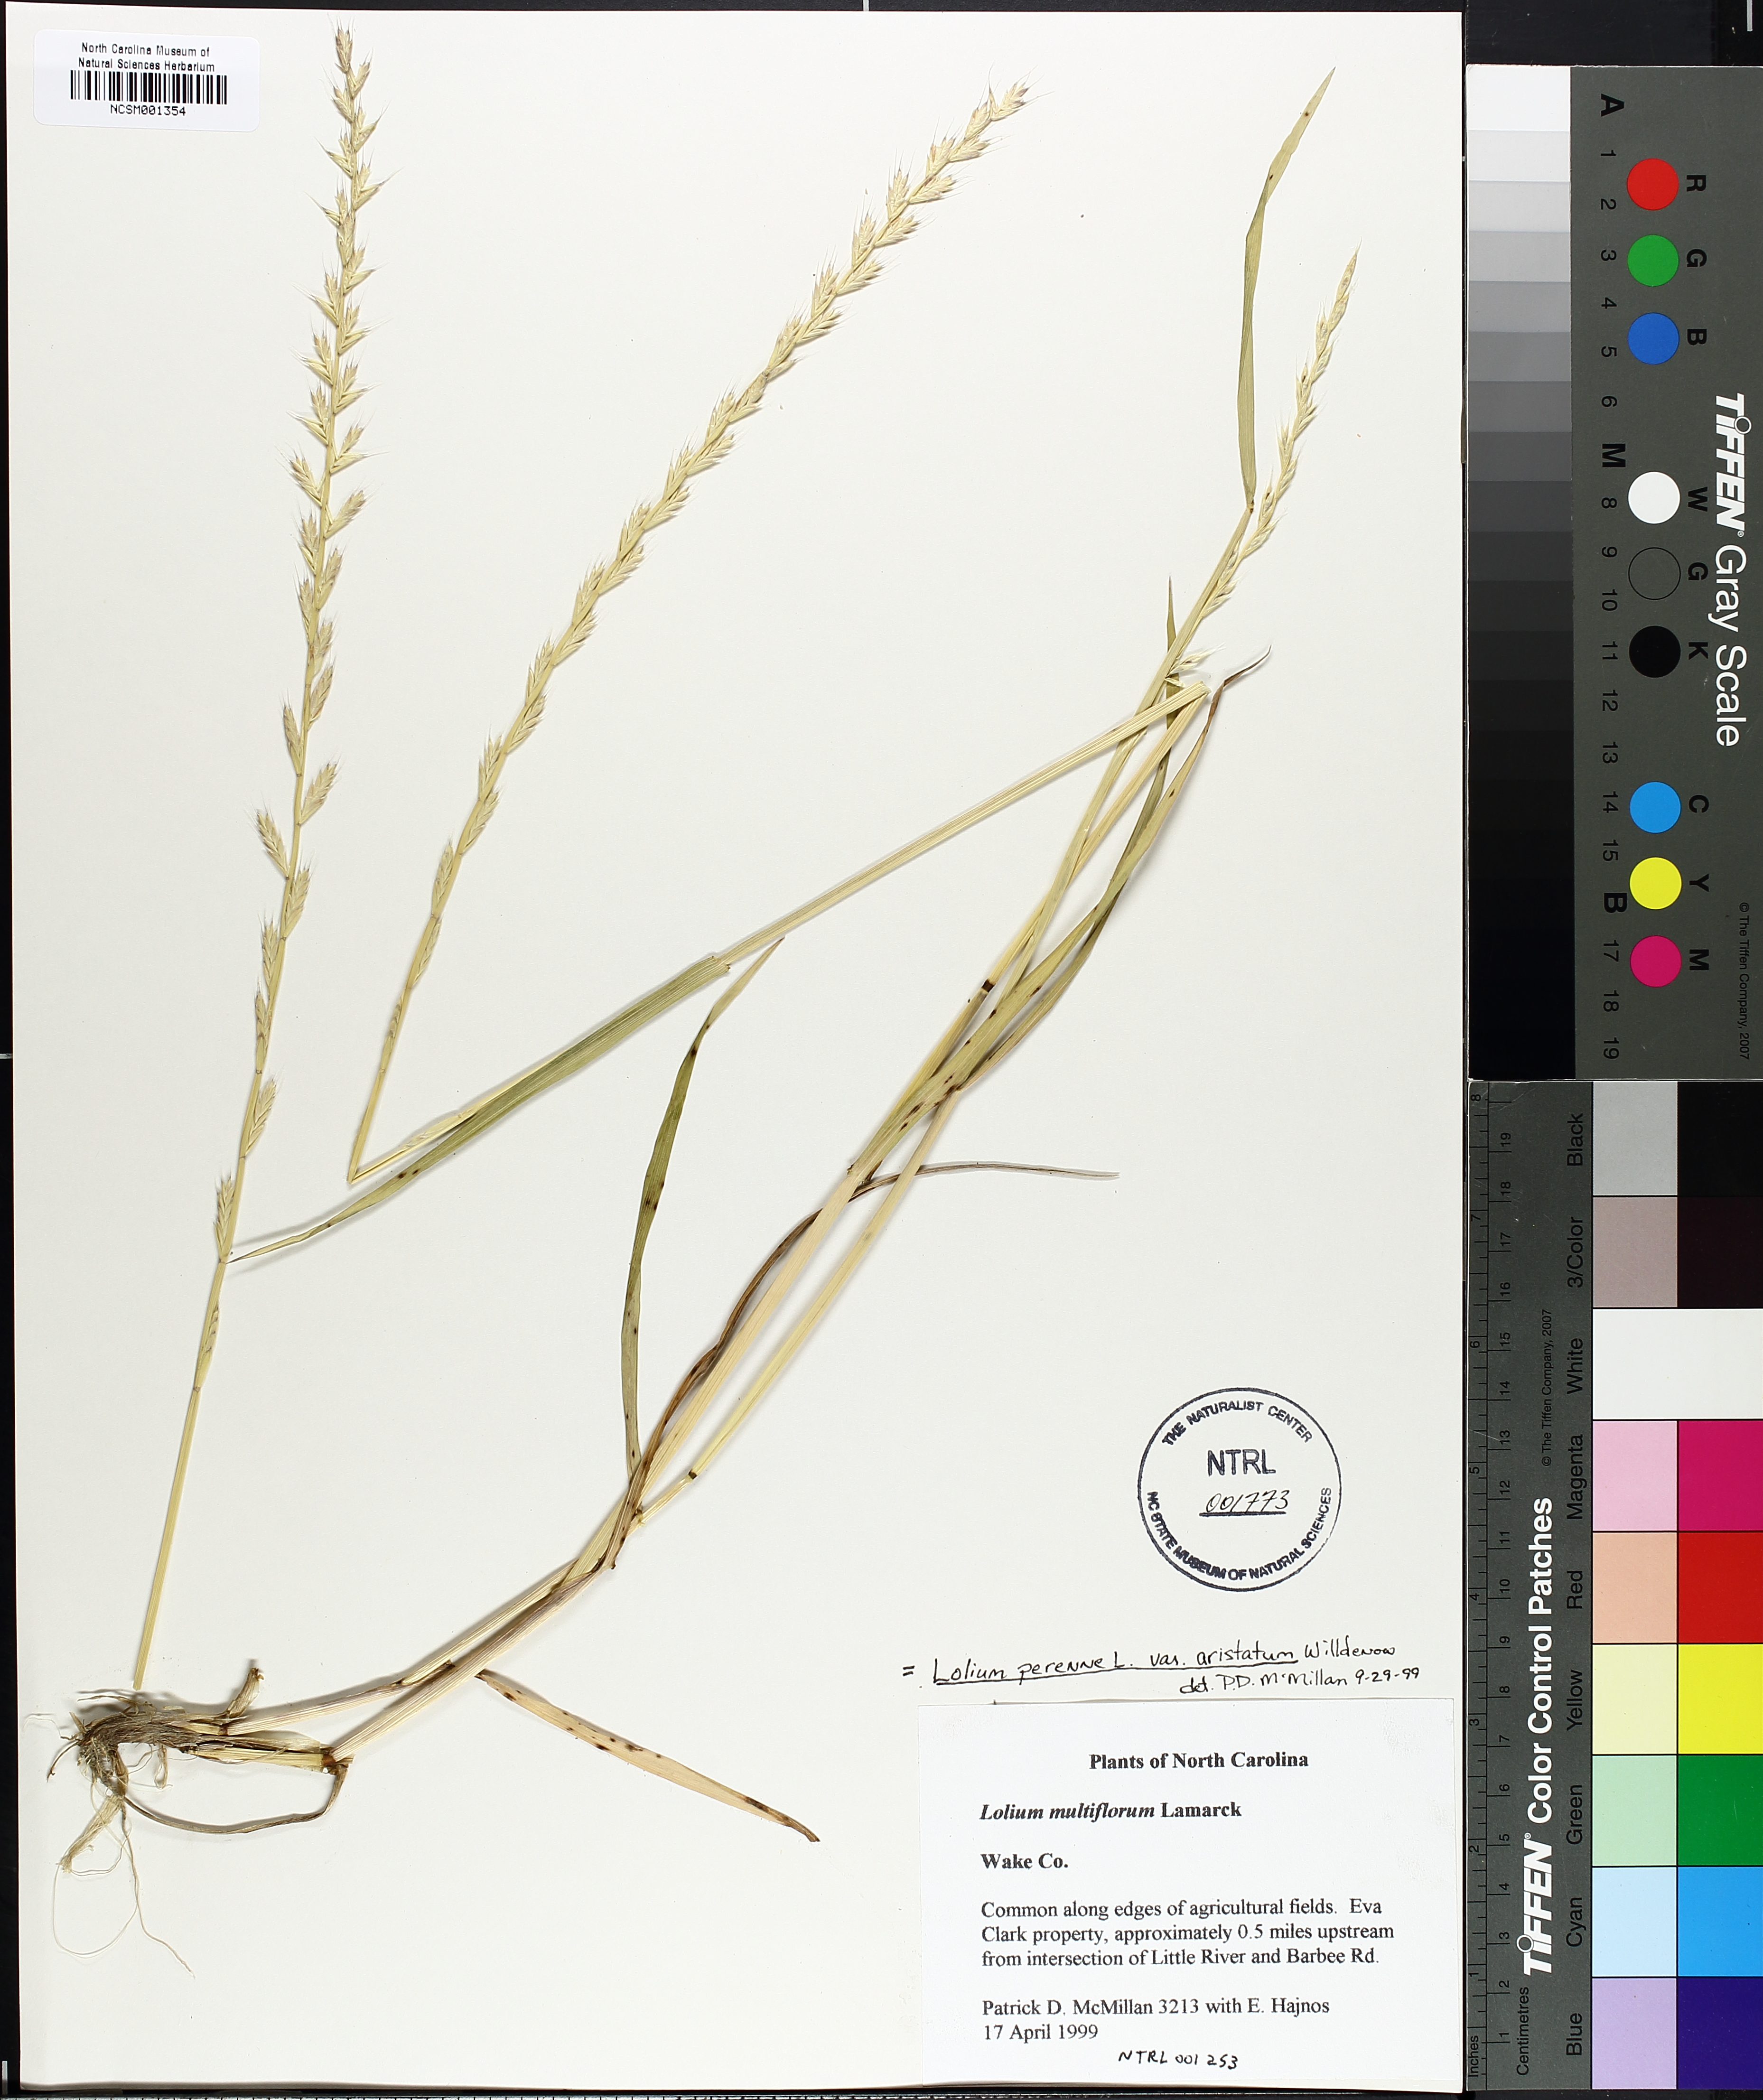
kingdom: Plantae
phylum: Tracheophyta
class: Liliopsida
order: Poales
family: Poaceae
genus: Lolium
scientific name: Lolium multiflorum
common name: Annual ryegrass
